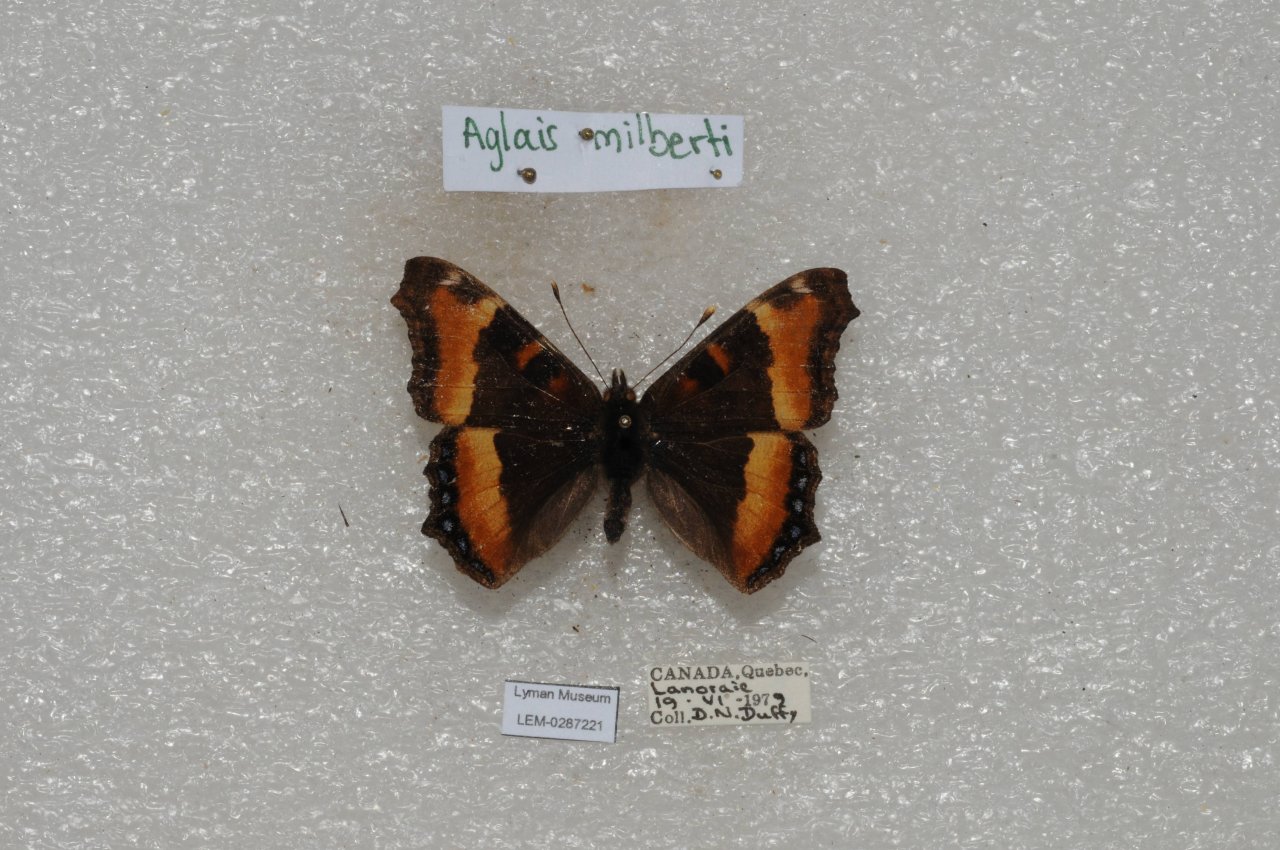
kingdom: Animalia
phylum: Arthropoda
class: Insecta
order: Lepidoptera
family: Nymphalidae
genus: Aglais
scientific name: Aglais milberti
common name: Milbert's Tortoiseshell
